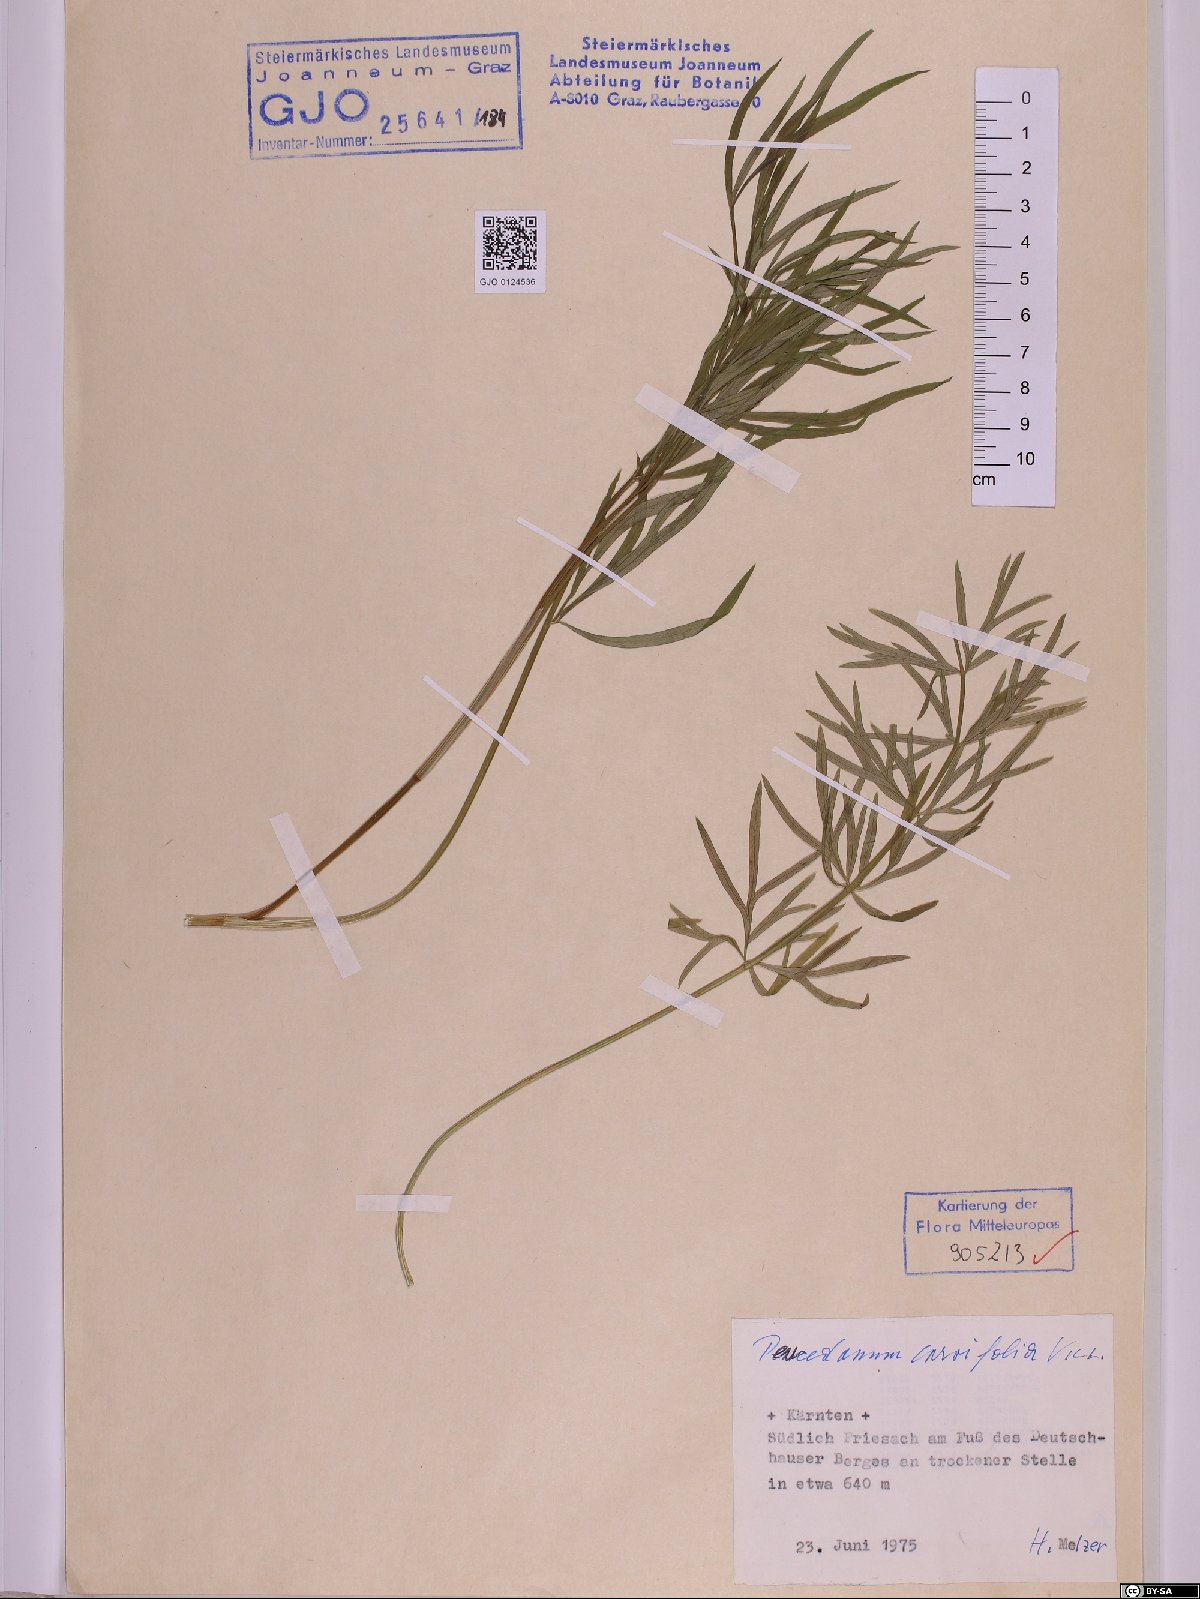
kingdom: Plantae
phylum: Tracheophyta
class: Magnoliopsida
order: Apiales
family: Apiaceae
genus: Dichoropetalum
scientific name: Dichoropetalum carvifolia
